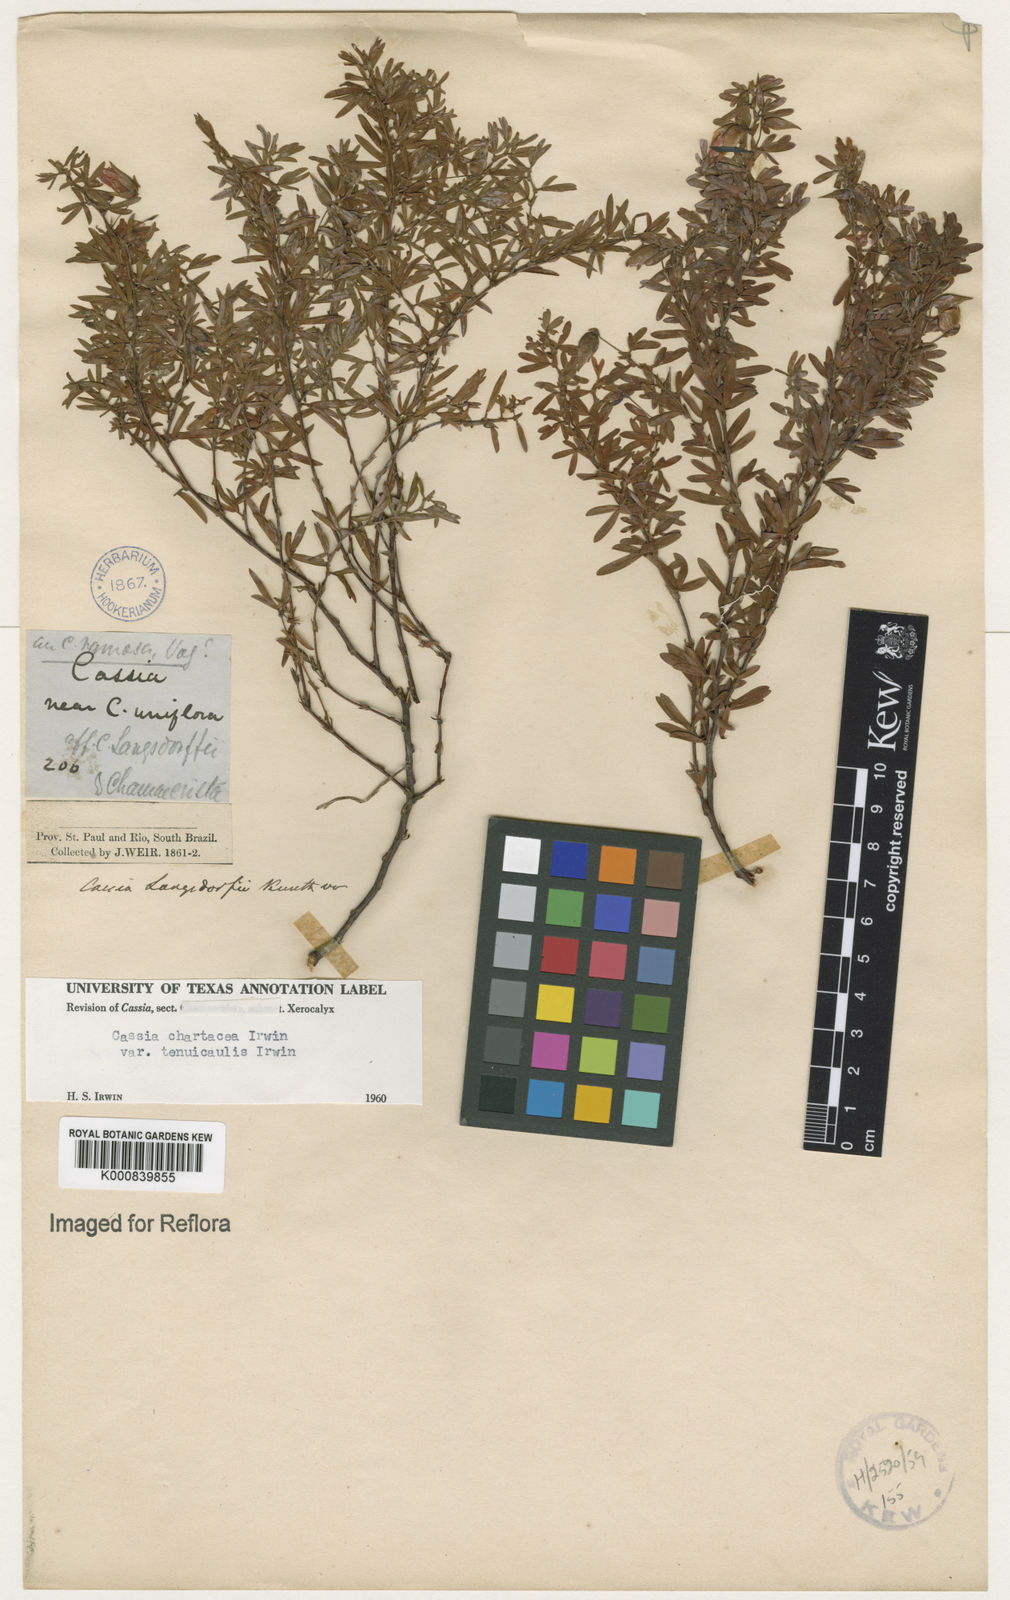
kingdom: Plantae
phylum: Tracheophyta
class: Magnoliopsida
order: Fabales
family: Fabaceae
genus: Chamaecrista
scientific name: Chamaecrista ramosa
